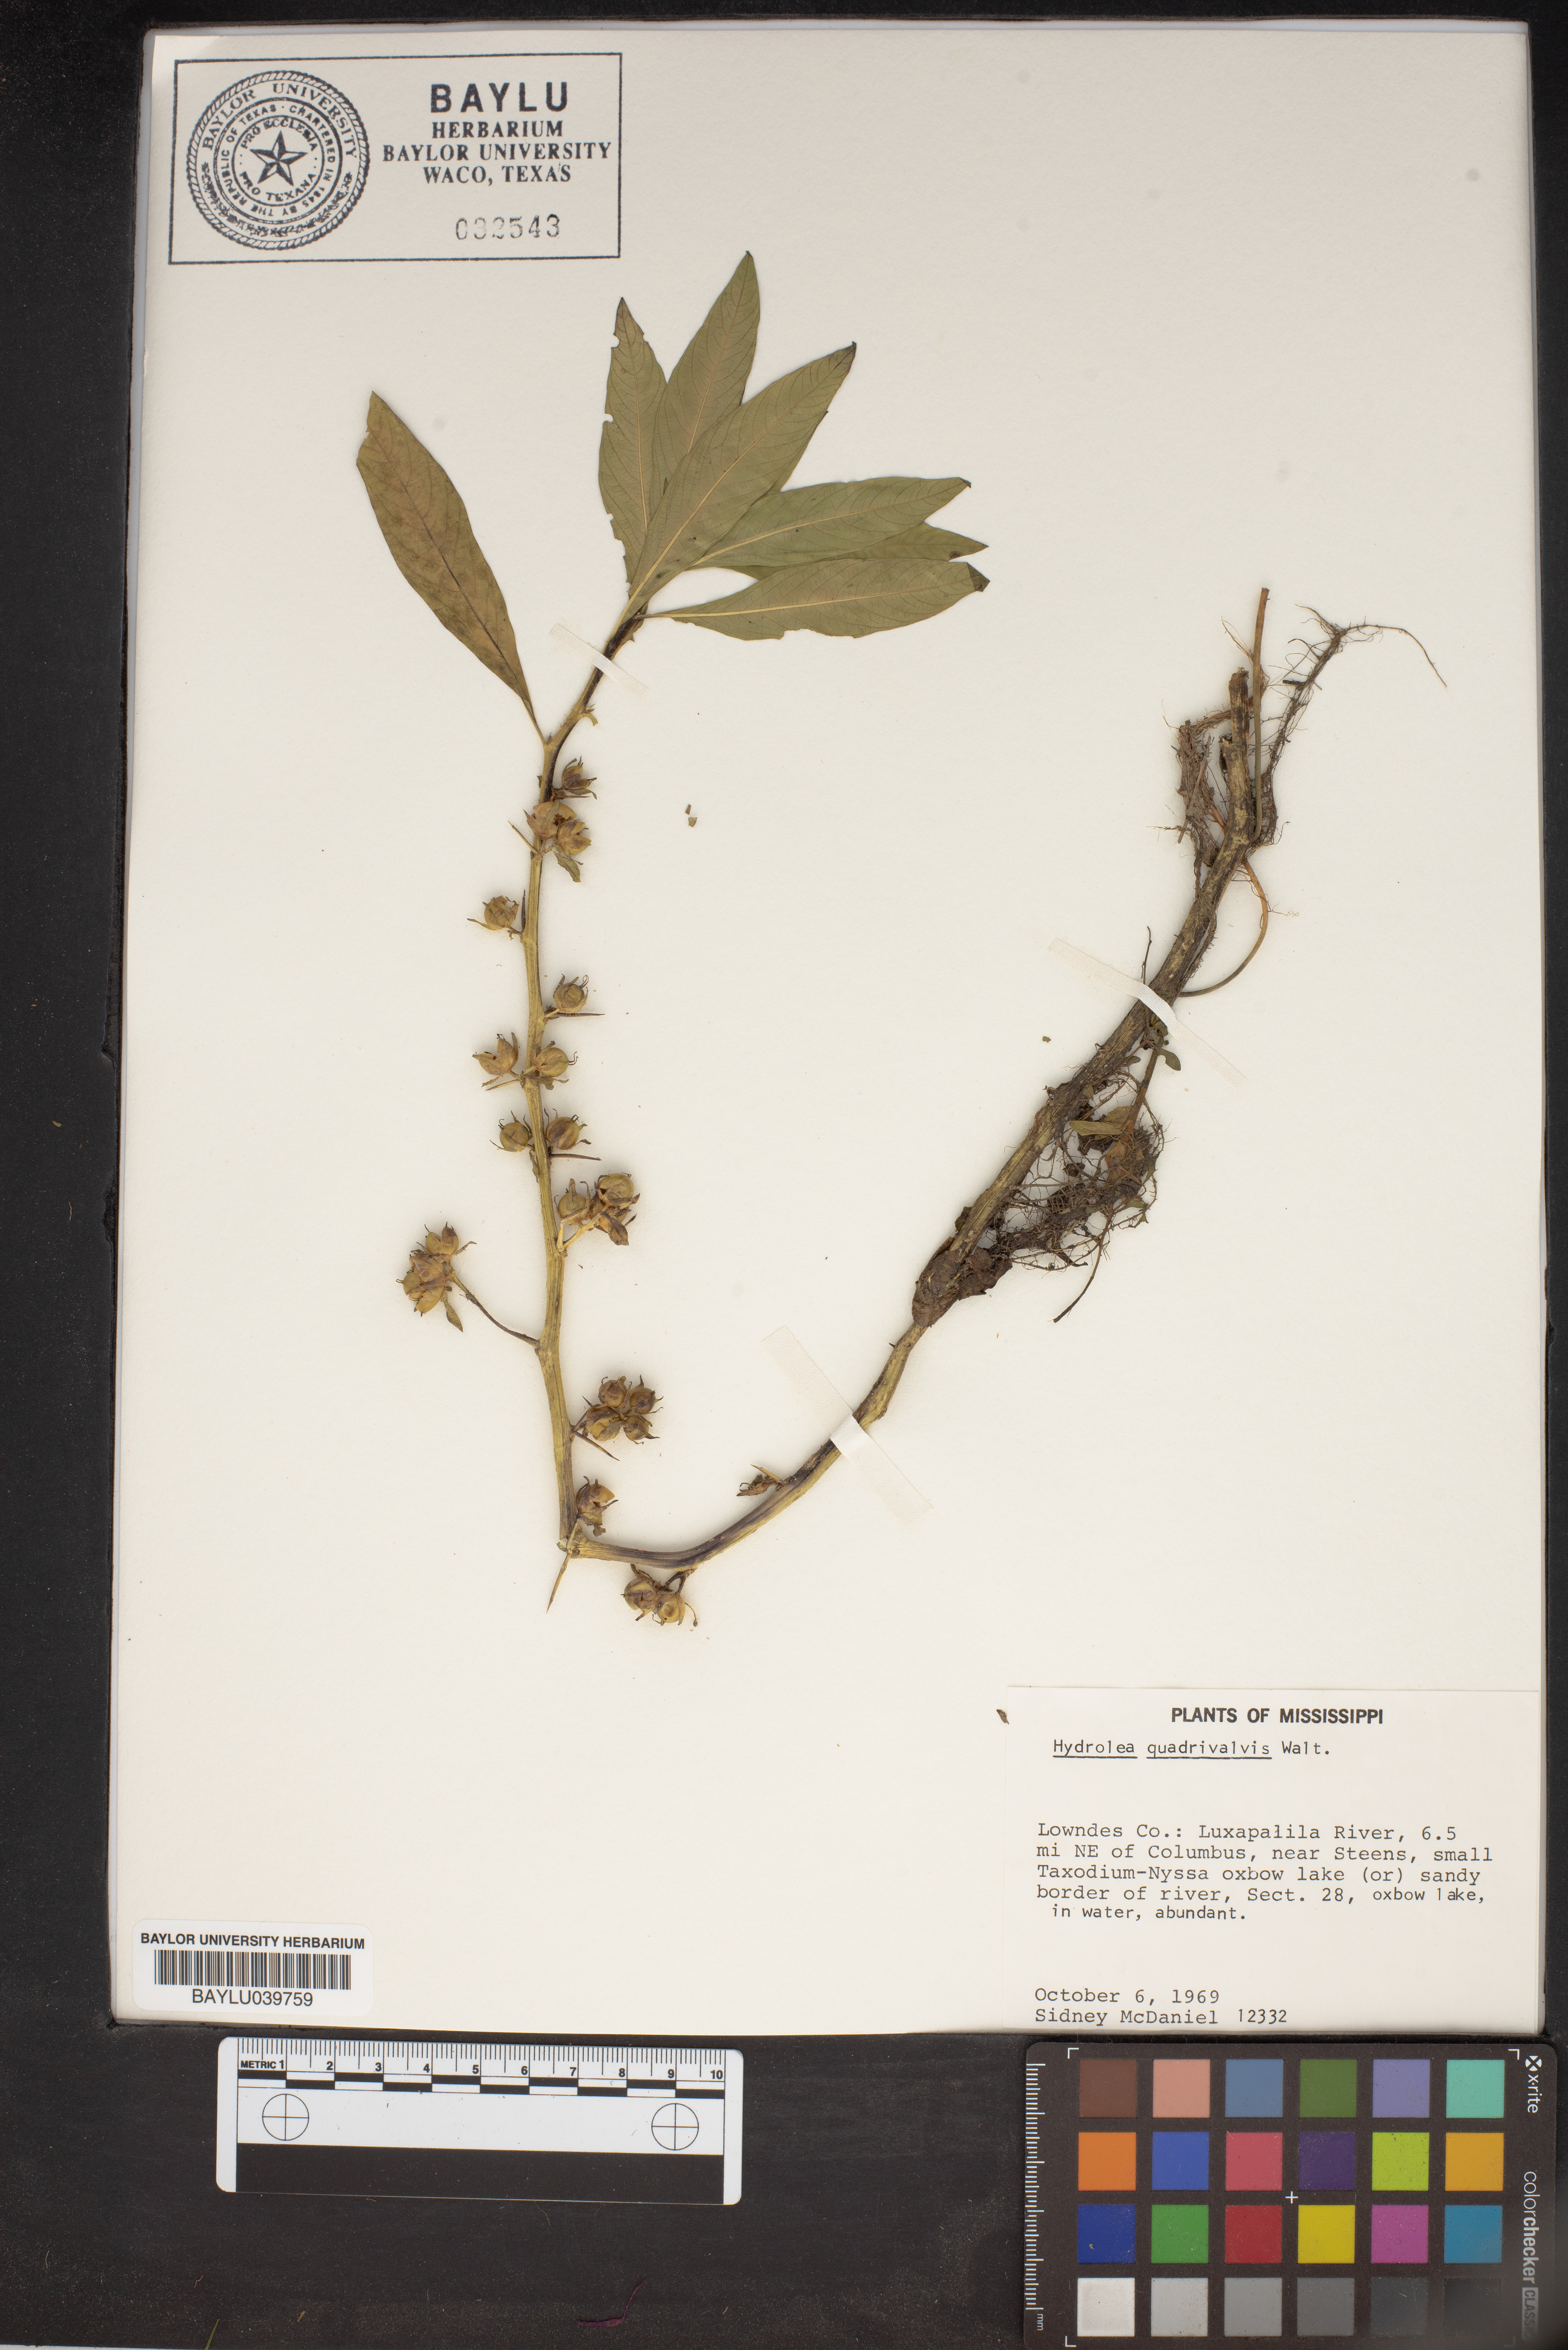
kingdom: Plantae
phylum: Tracheophyta
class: Magnoliopsida
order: Solanales
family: Hydroleaceae
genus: Hydrolea
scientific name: Hydrolea quadrivalvis
